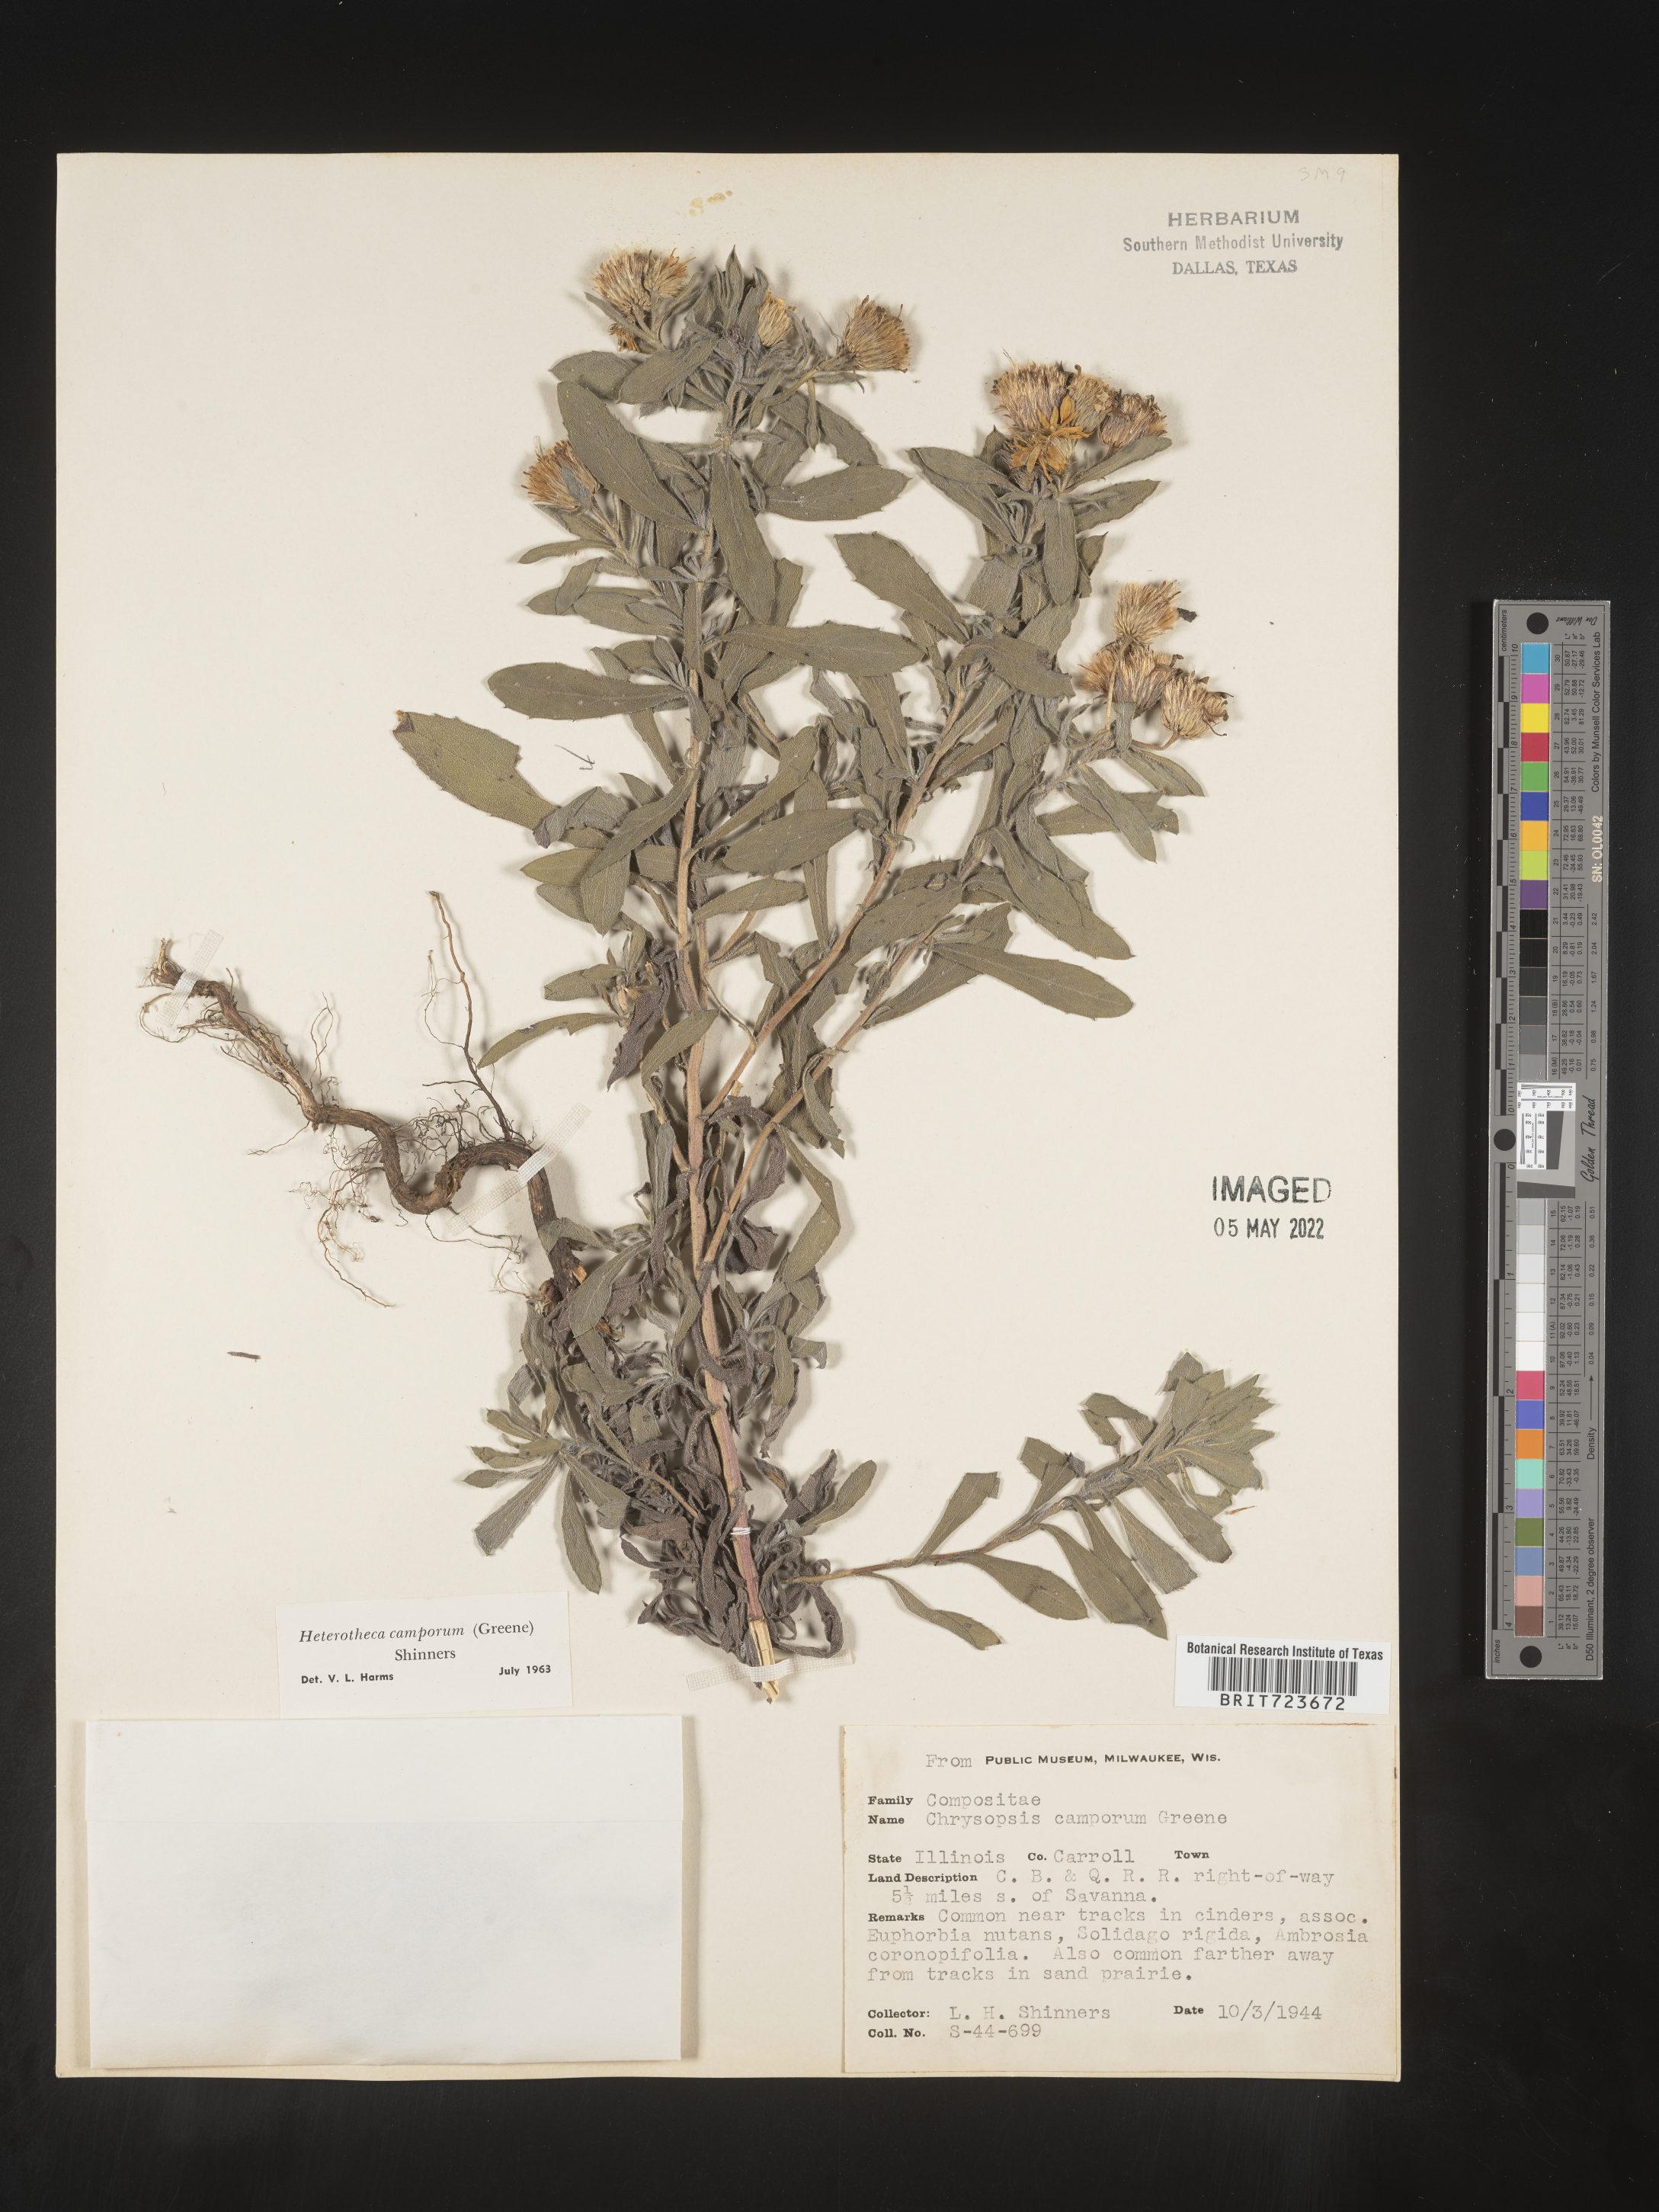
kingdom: Plantae
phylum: Tracheophyta
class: Magnoliopsida
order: Asterales
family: Asteraceae
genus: Heterotheca
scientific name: Heterotheca camporum
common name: Prairie golden-aster
